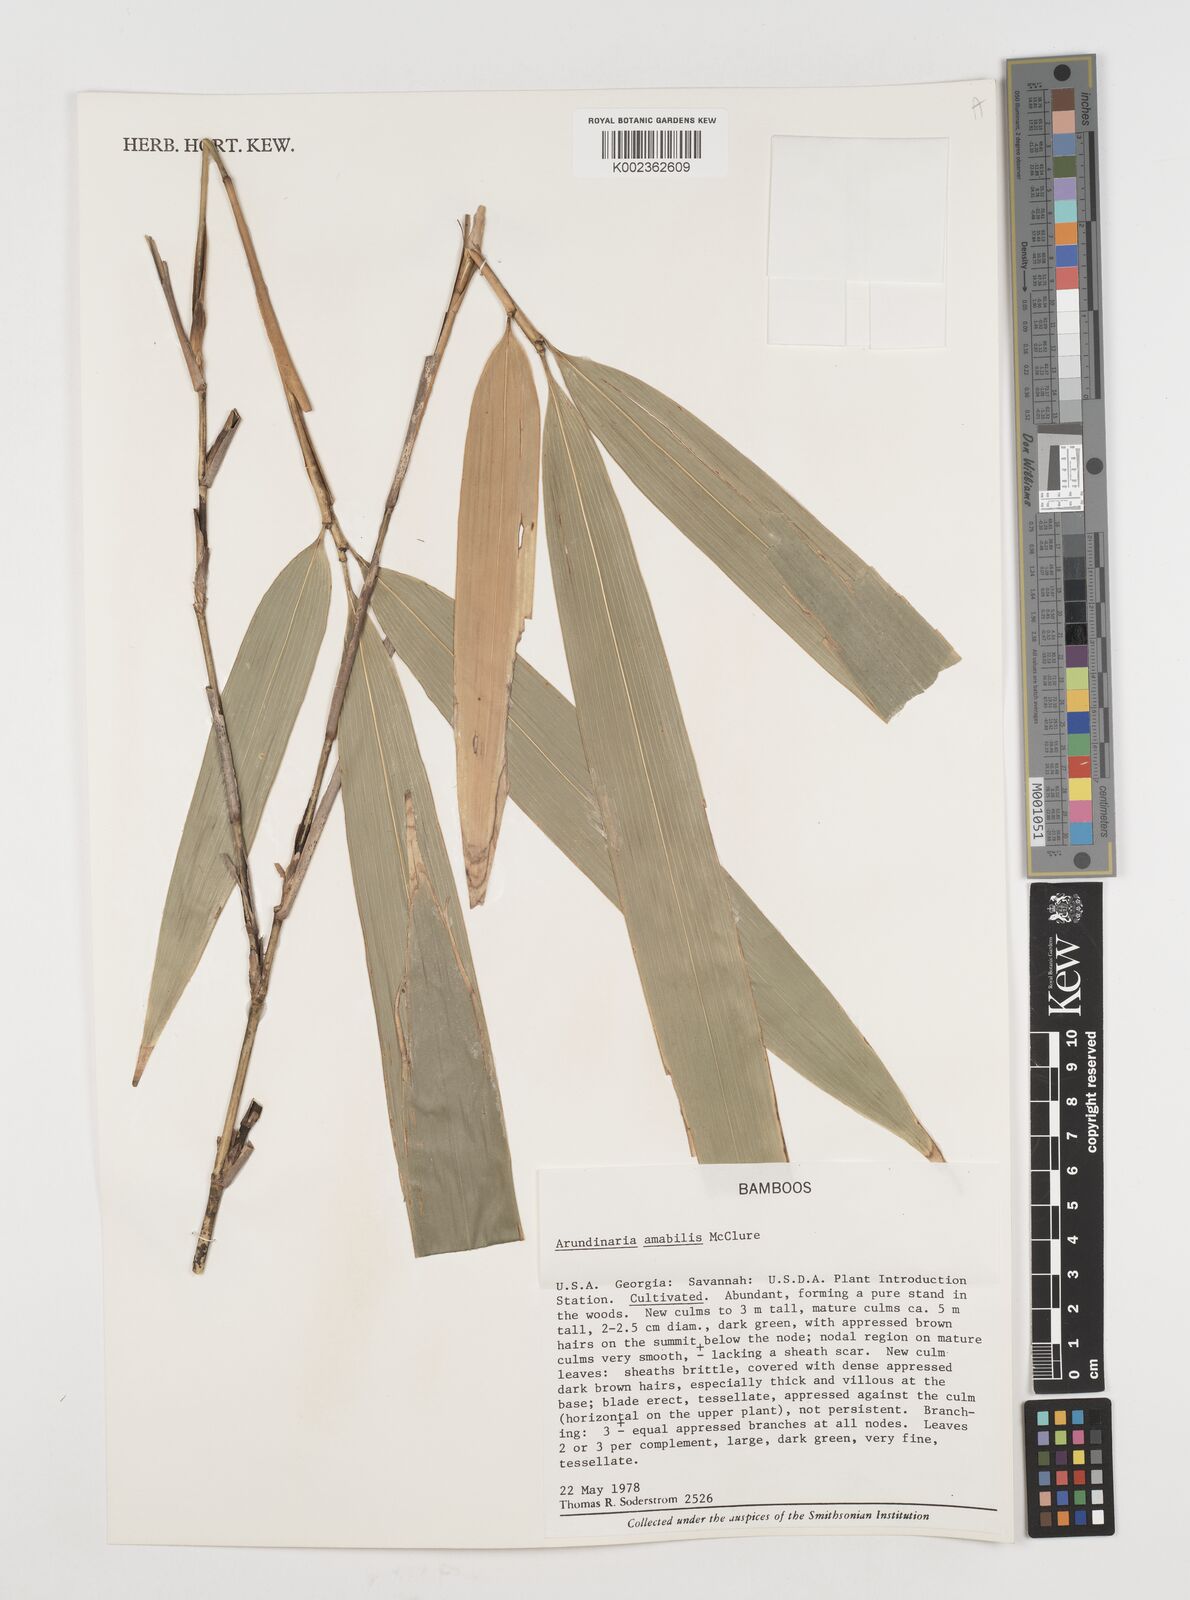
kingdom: Plantae
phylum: Tracheophyta
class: Liliopsida
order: Poales
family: Poaceae
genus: Pseudosasa
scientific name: Pseudosasa amabilis
